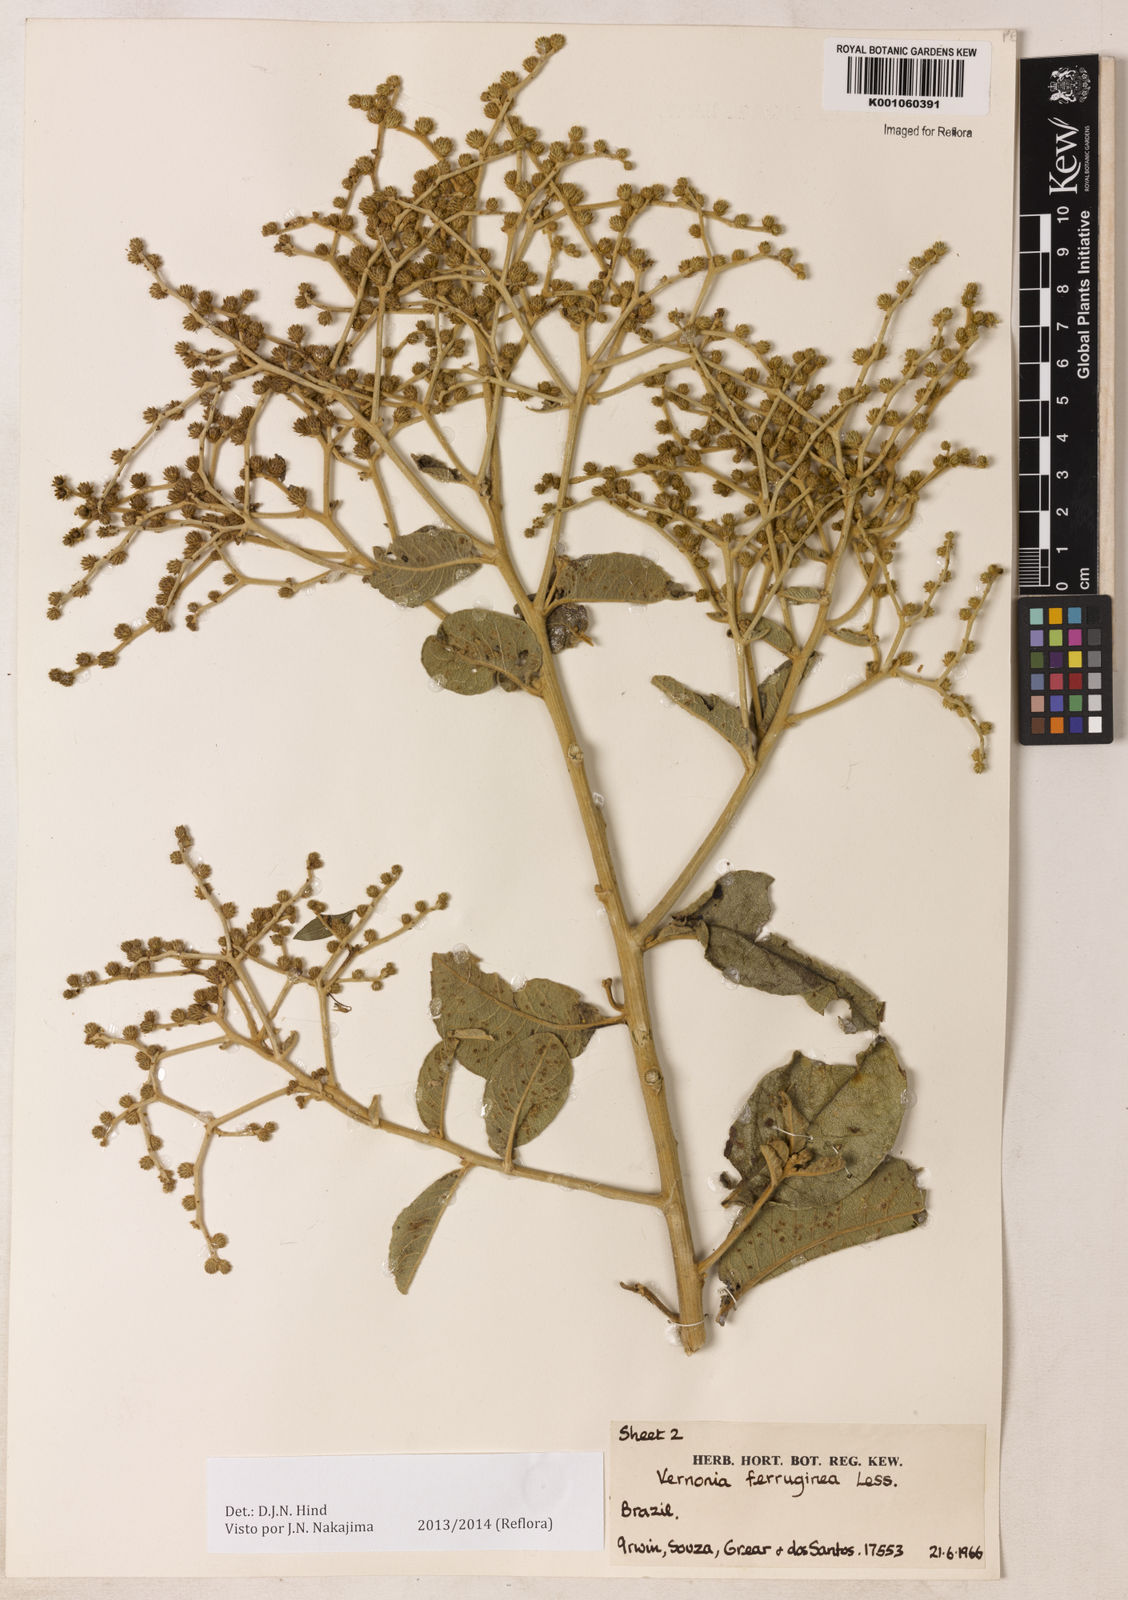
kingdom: Plantae
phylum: Tracheophyta
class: Magnoliopsida
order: Asterales
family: Asteraceae
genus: Vernonanthura
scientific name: Vernonanthura ferruginea
